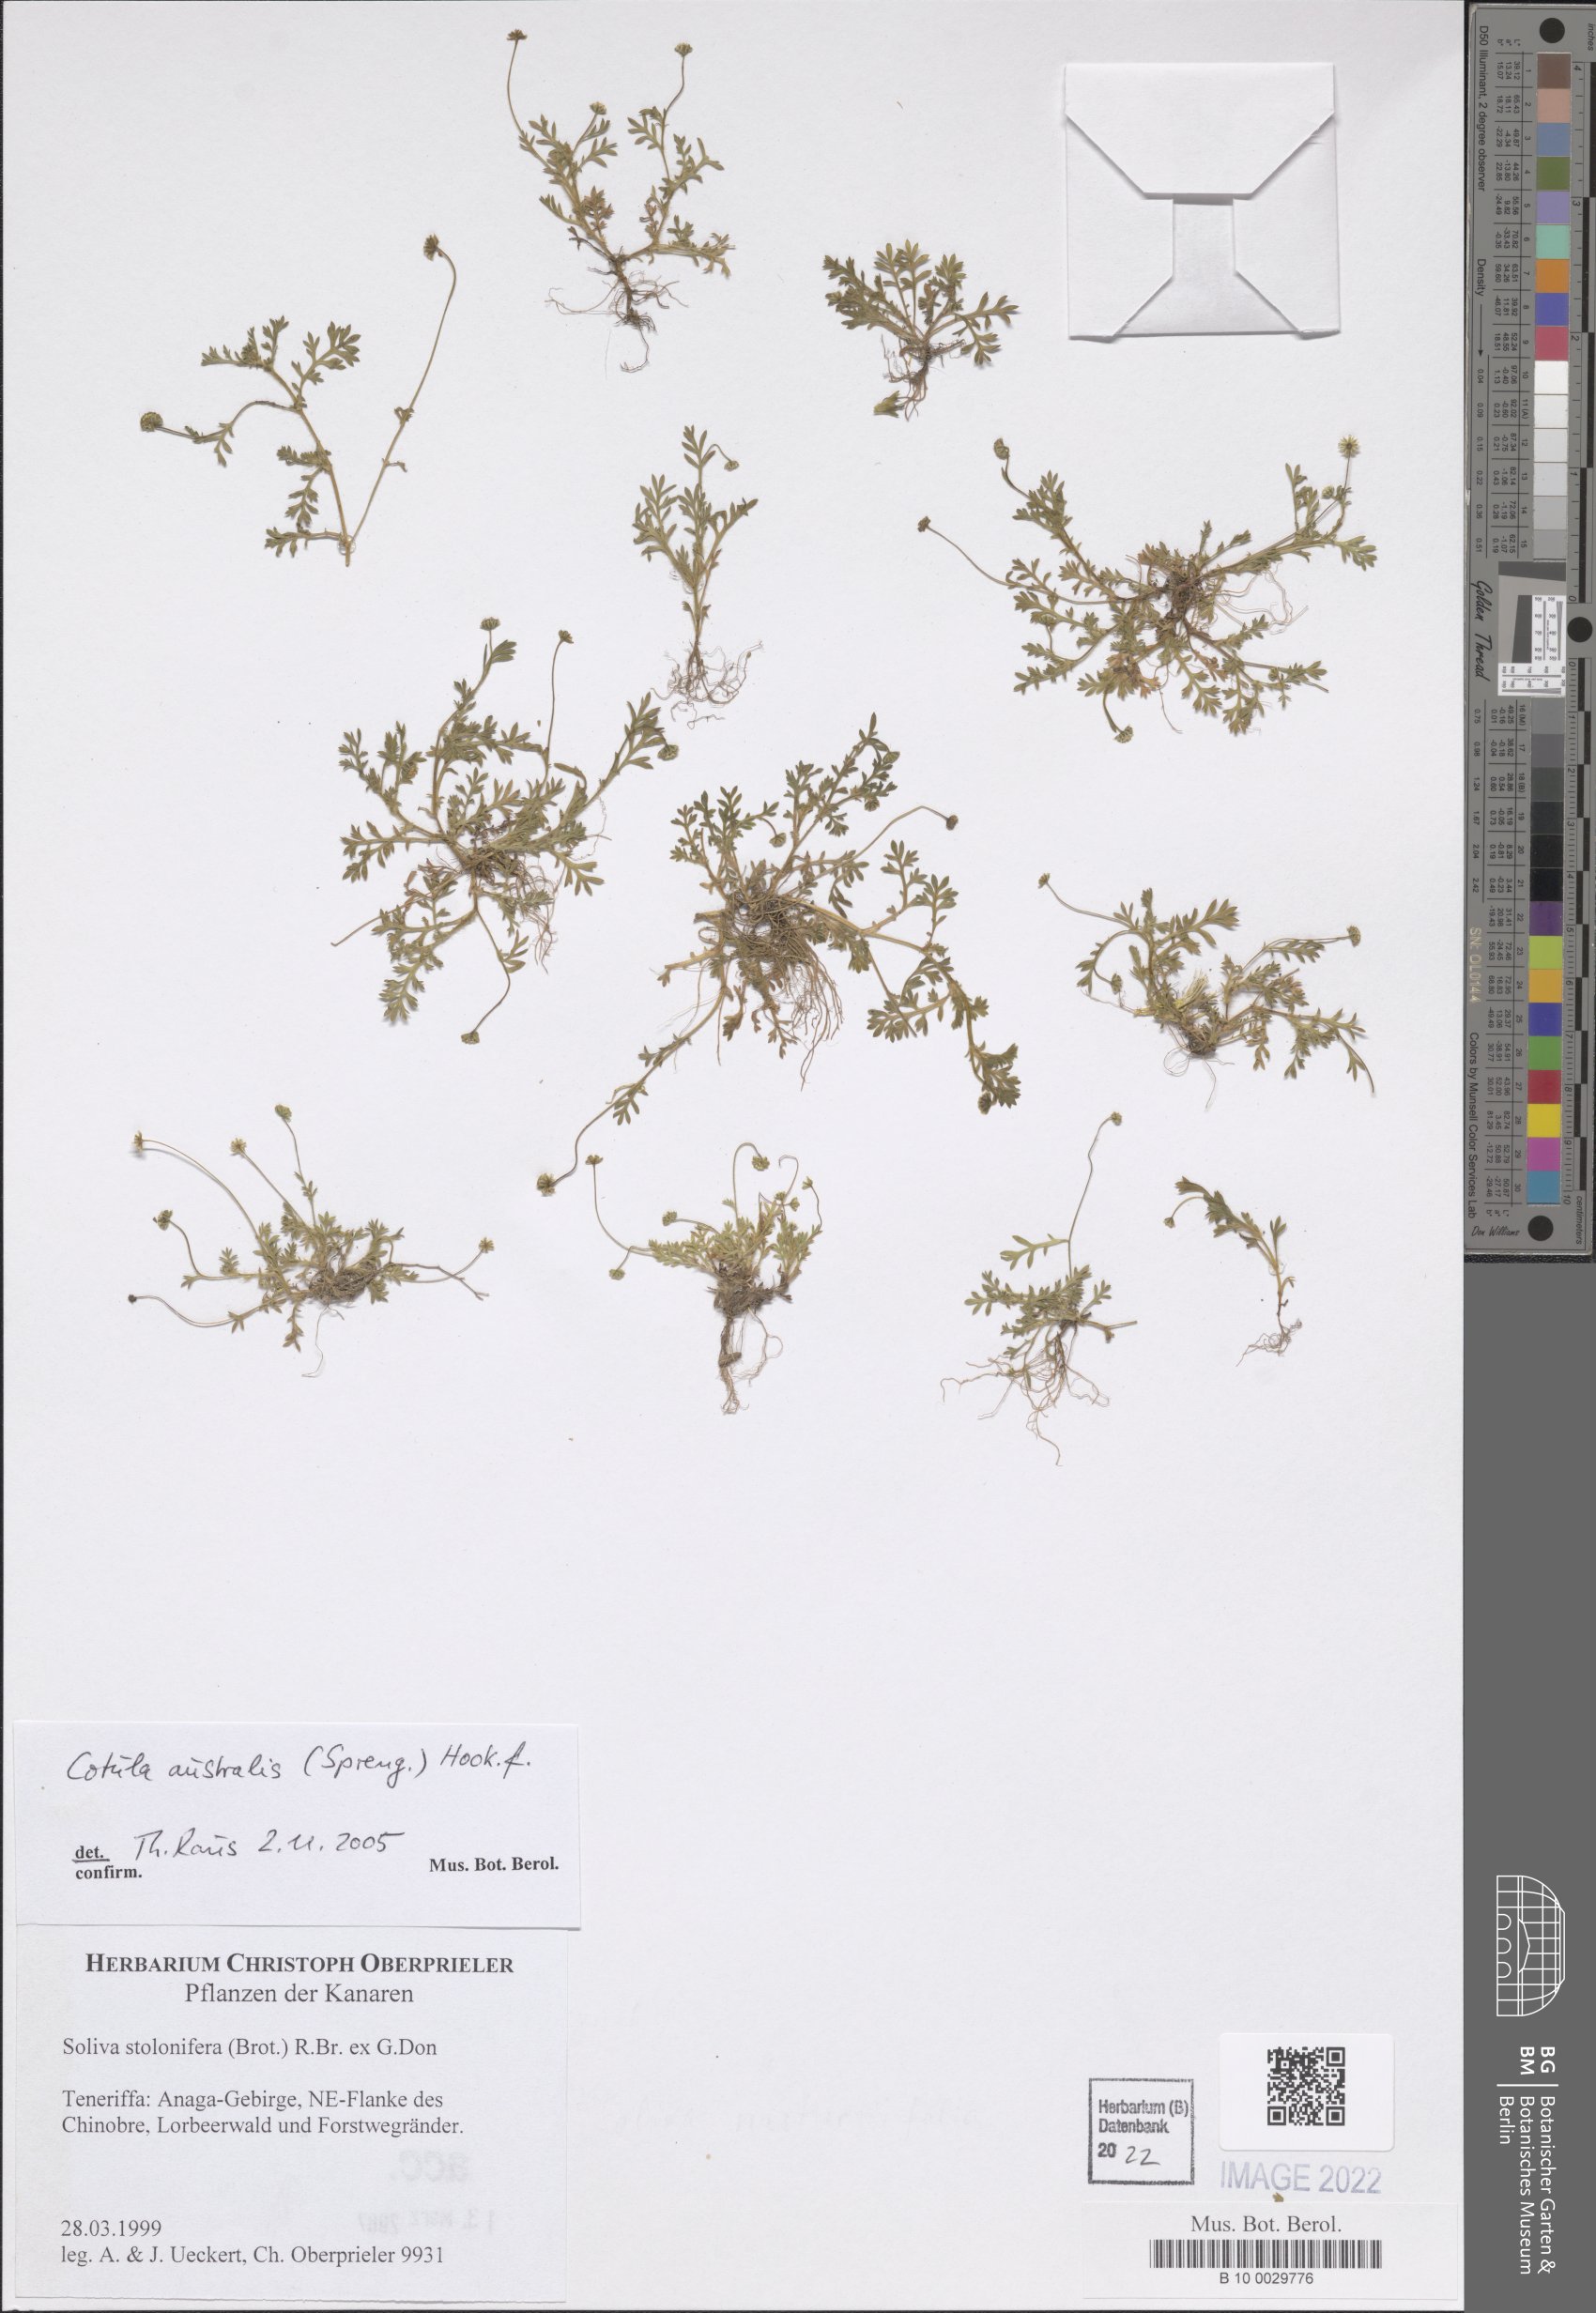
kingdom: Plantae
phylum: Tracheophyta
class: Magnoliopsida
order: Asterales
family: Asteraceae
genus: Cotula
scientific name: Cotula australis
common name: Australian waterbuttons
